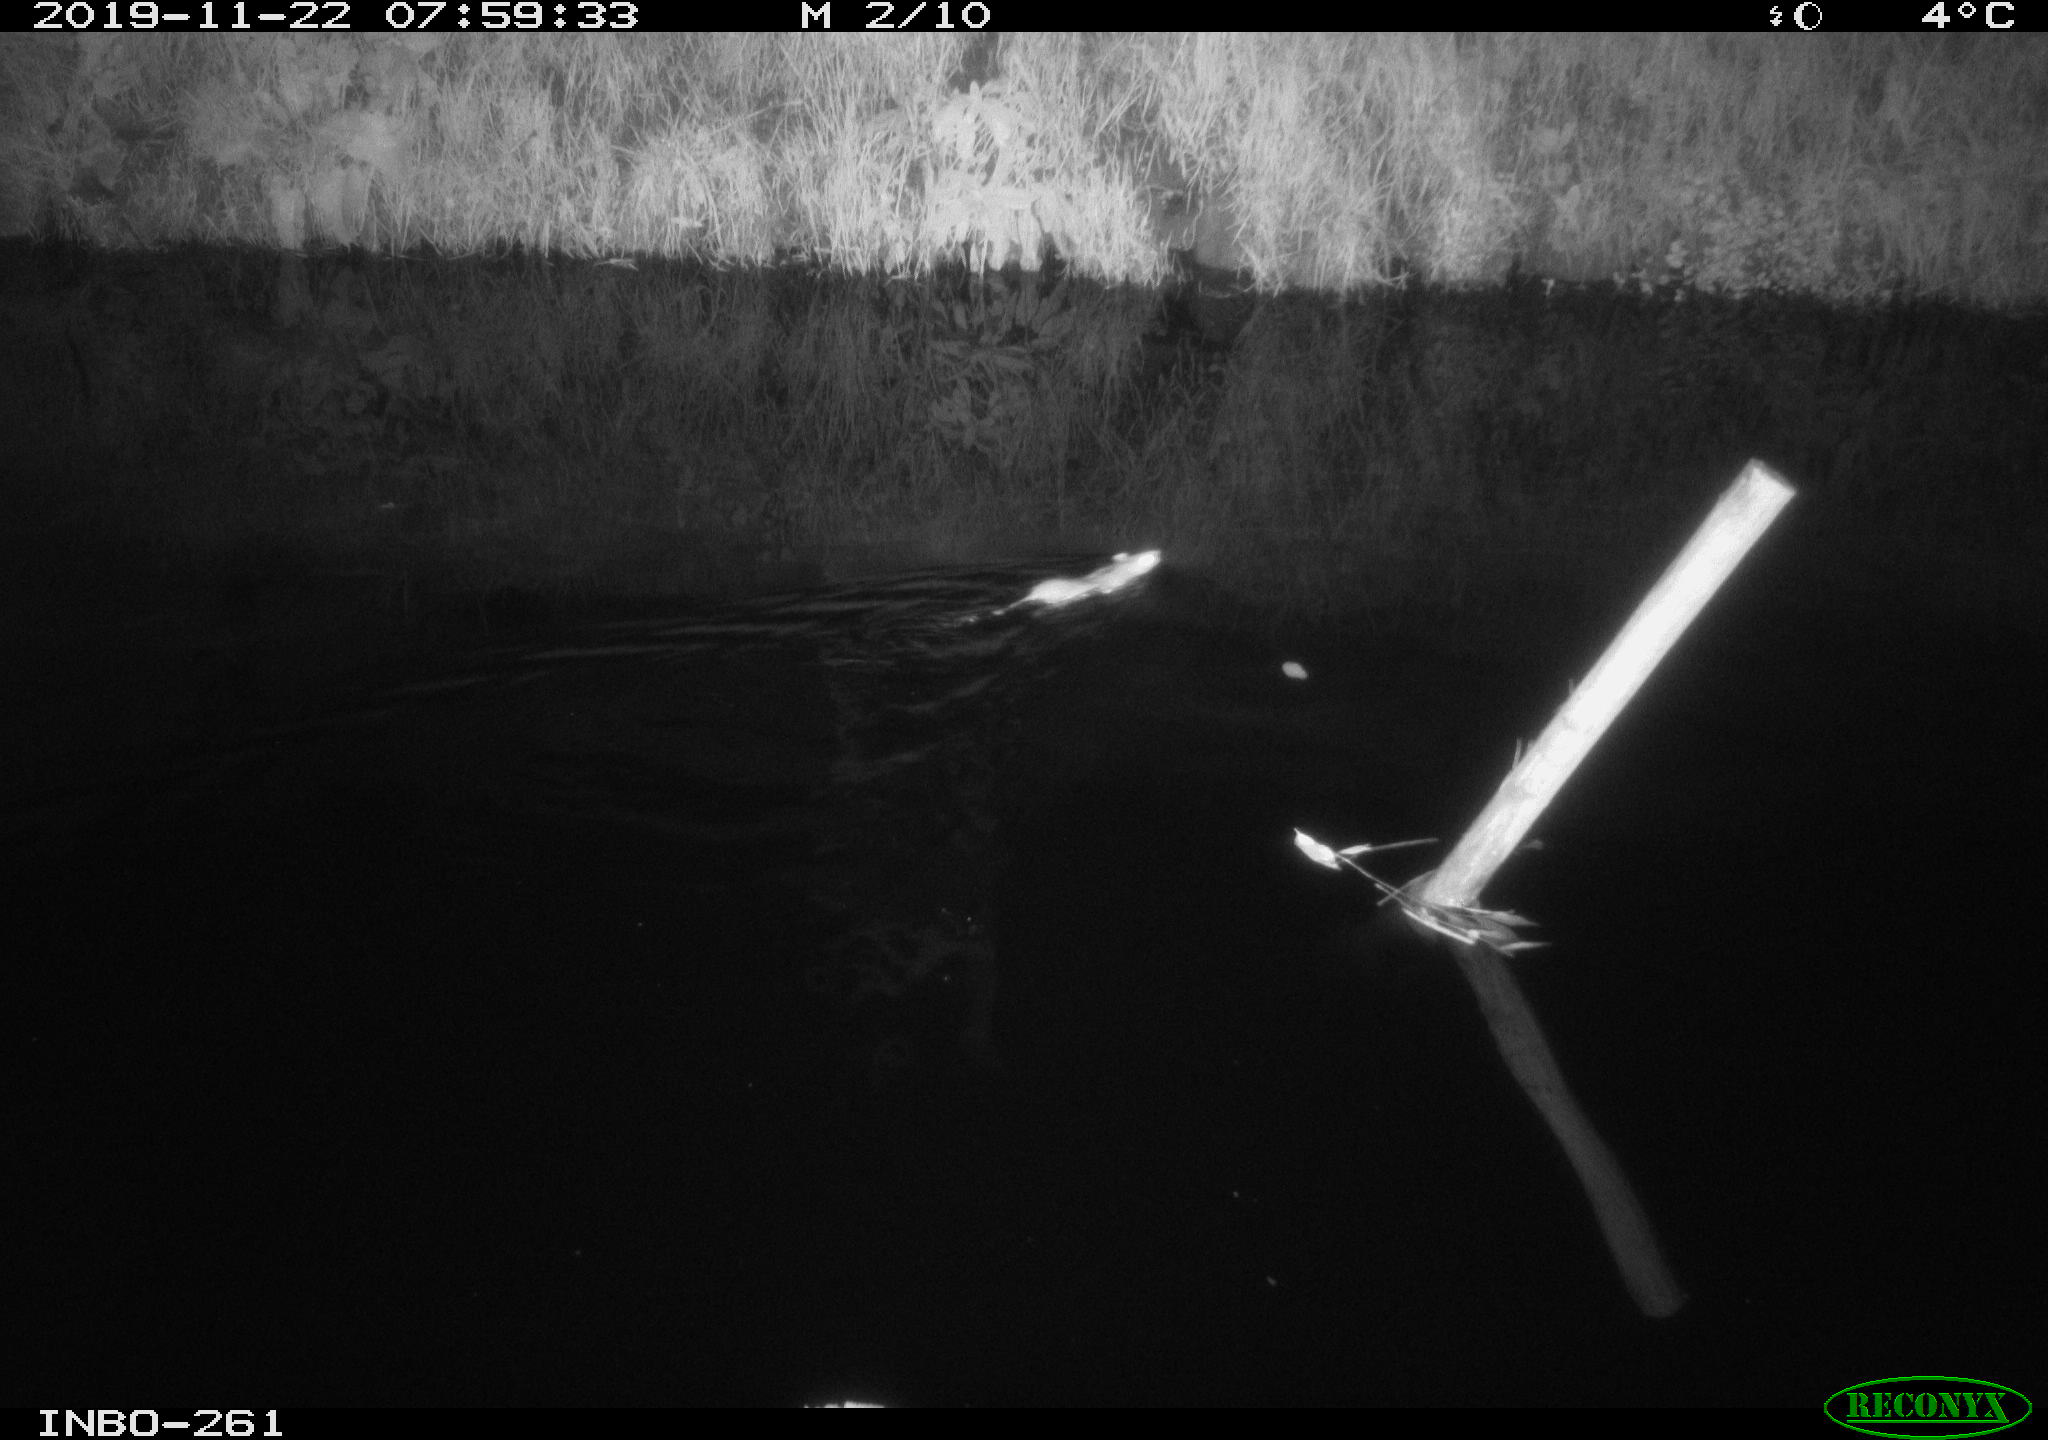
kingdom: Animalia
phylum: Chordata
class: Mammalia
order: Rodentia
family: Muridae
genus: Rattus
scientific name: Rattus norvegicus
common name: Brown rat
